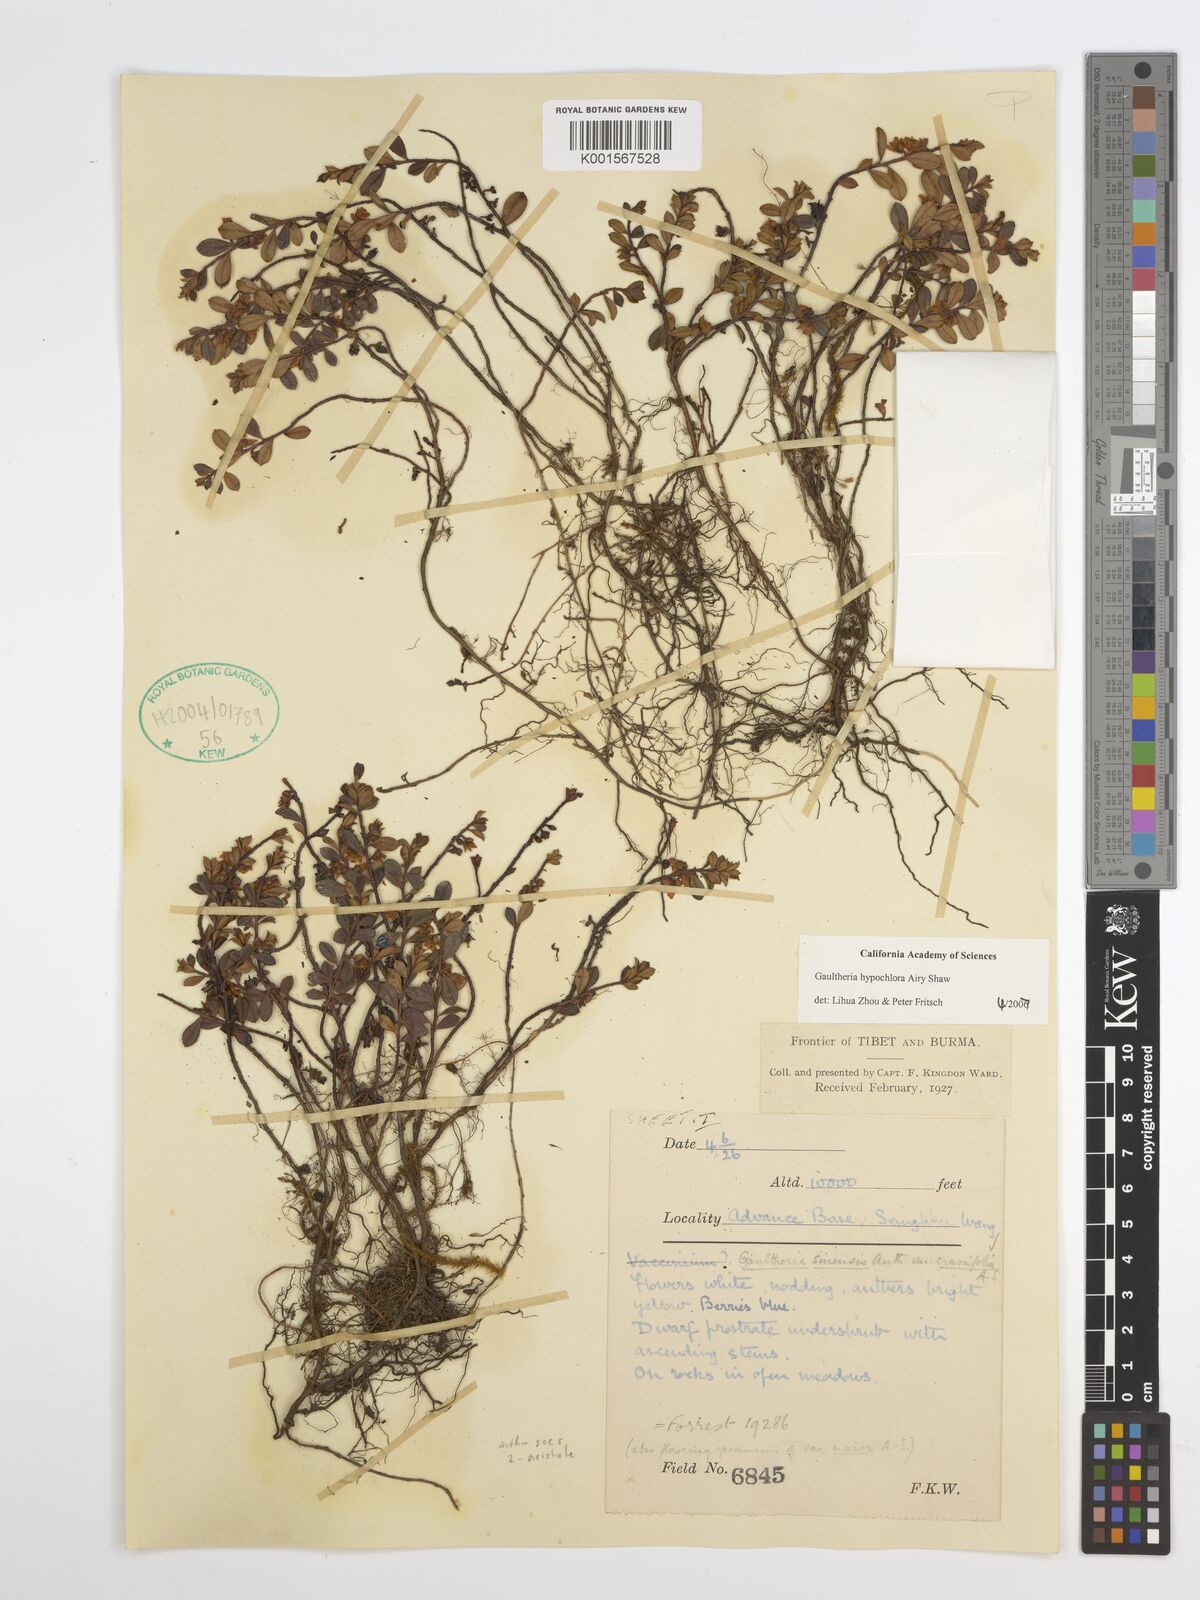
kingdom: Plantae
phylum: Tracheophyta
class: Magnoliopsida
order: Ericales
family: Ericaceae
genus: Gaultheria
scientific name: Gaultheria hypochlora
